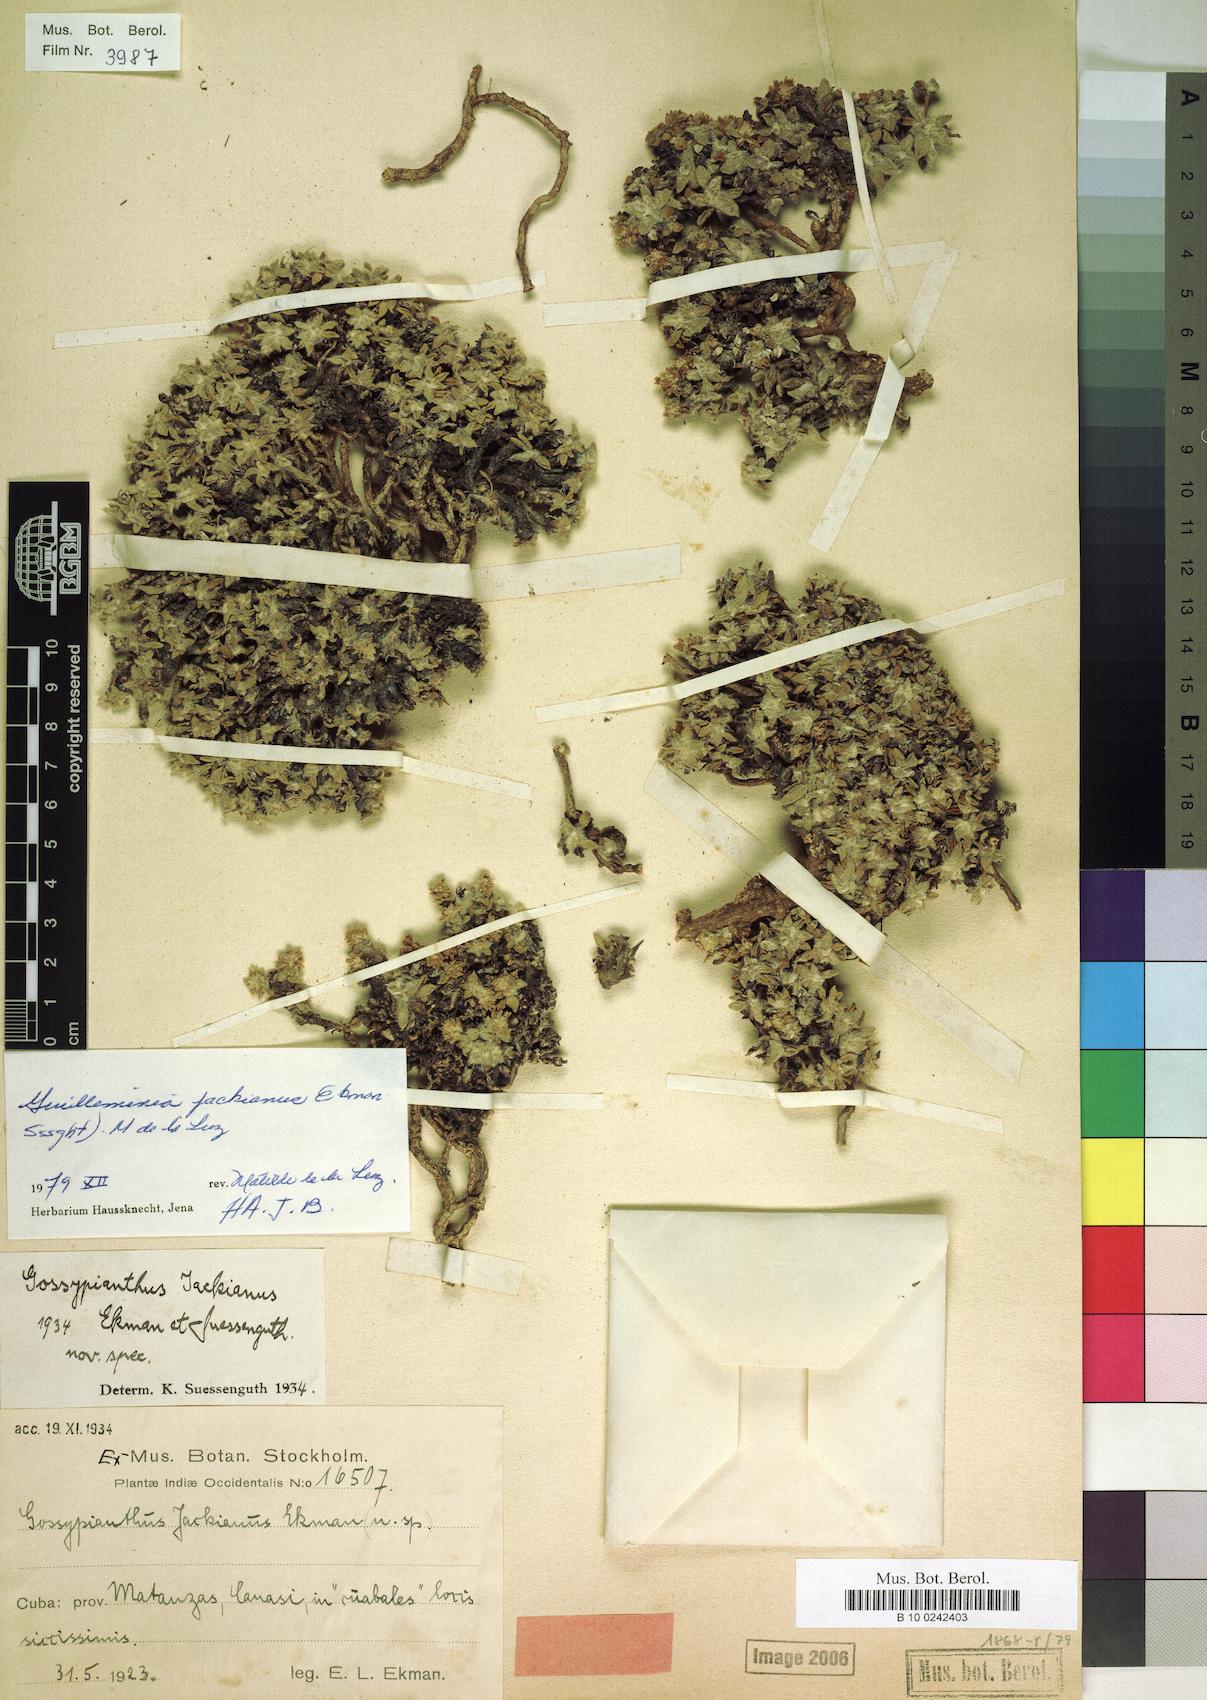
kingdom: Plantae
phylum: Tracheophyta
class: Magnoliopsida
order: Caryophyllales
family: Amaranthaceae
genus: Gomphrena
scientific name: Gomphrena brittonii
